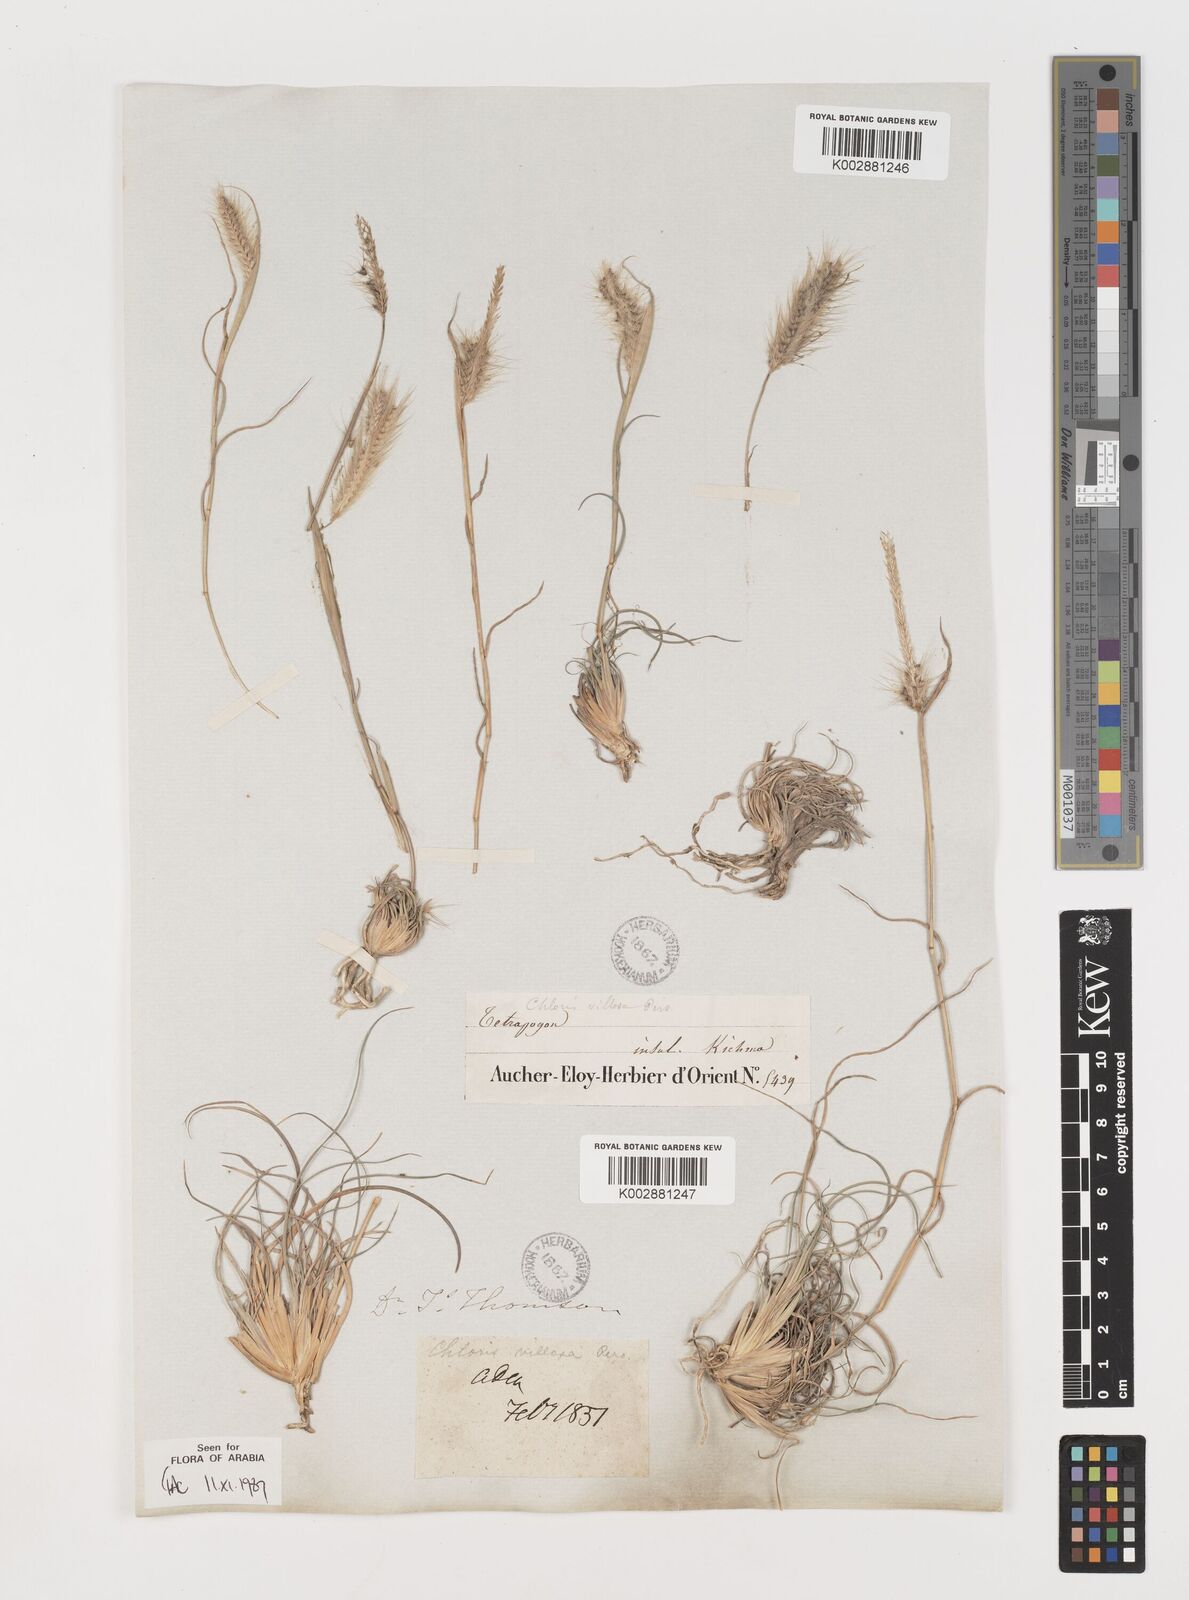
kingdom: Plantae
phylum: Tracheophyta
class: Liliopsida
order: Poales
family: Poaceae
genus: Tetrapogon
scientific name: Tetrapogon villosus
